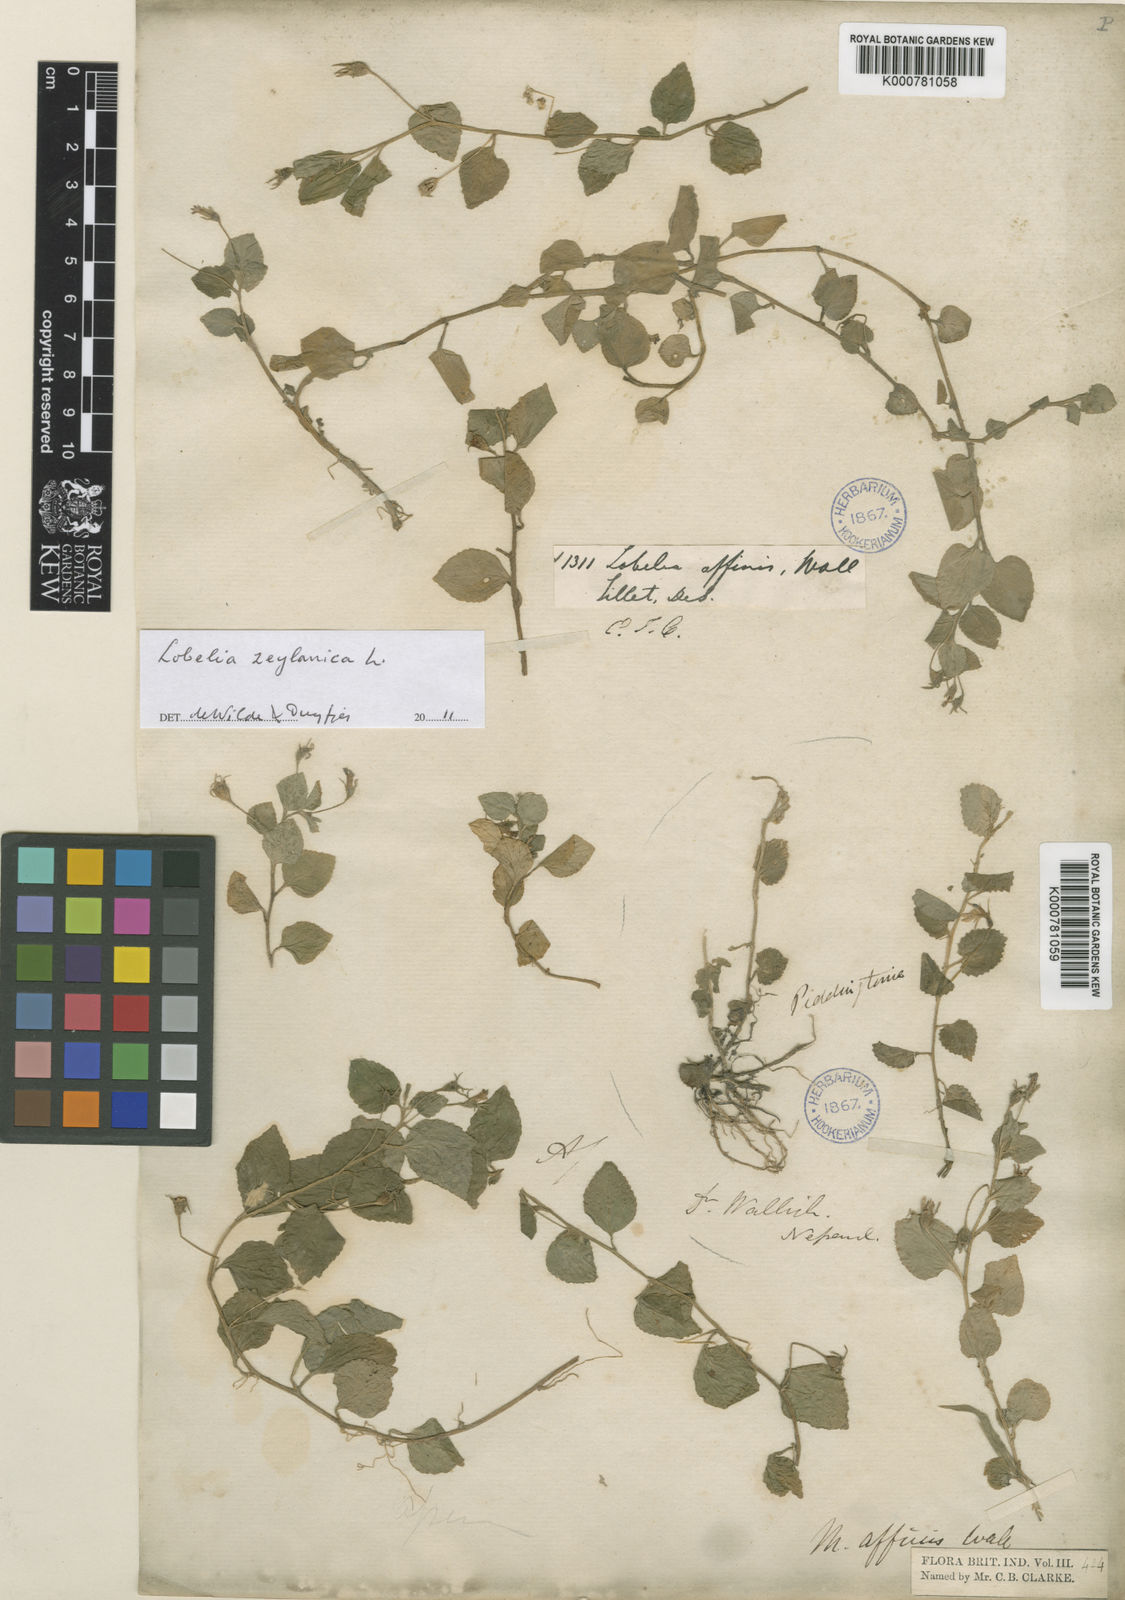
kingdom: Plantae
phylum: Tracheophyta
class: Magnoliopsida
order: Asterales
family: Campanulaceae
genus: Lobelia
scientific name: Lobelia zeylanica
